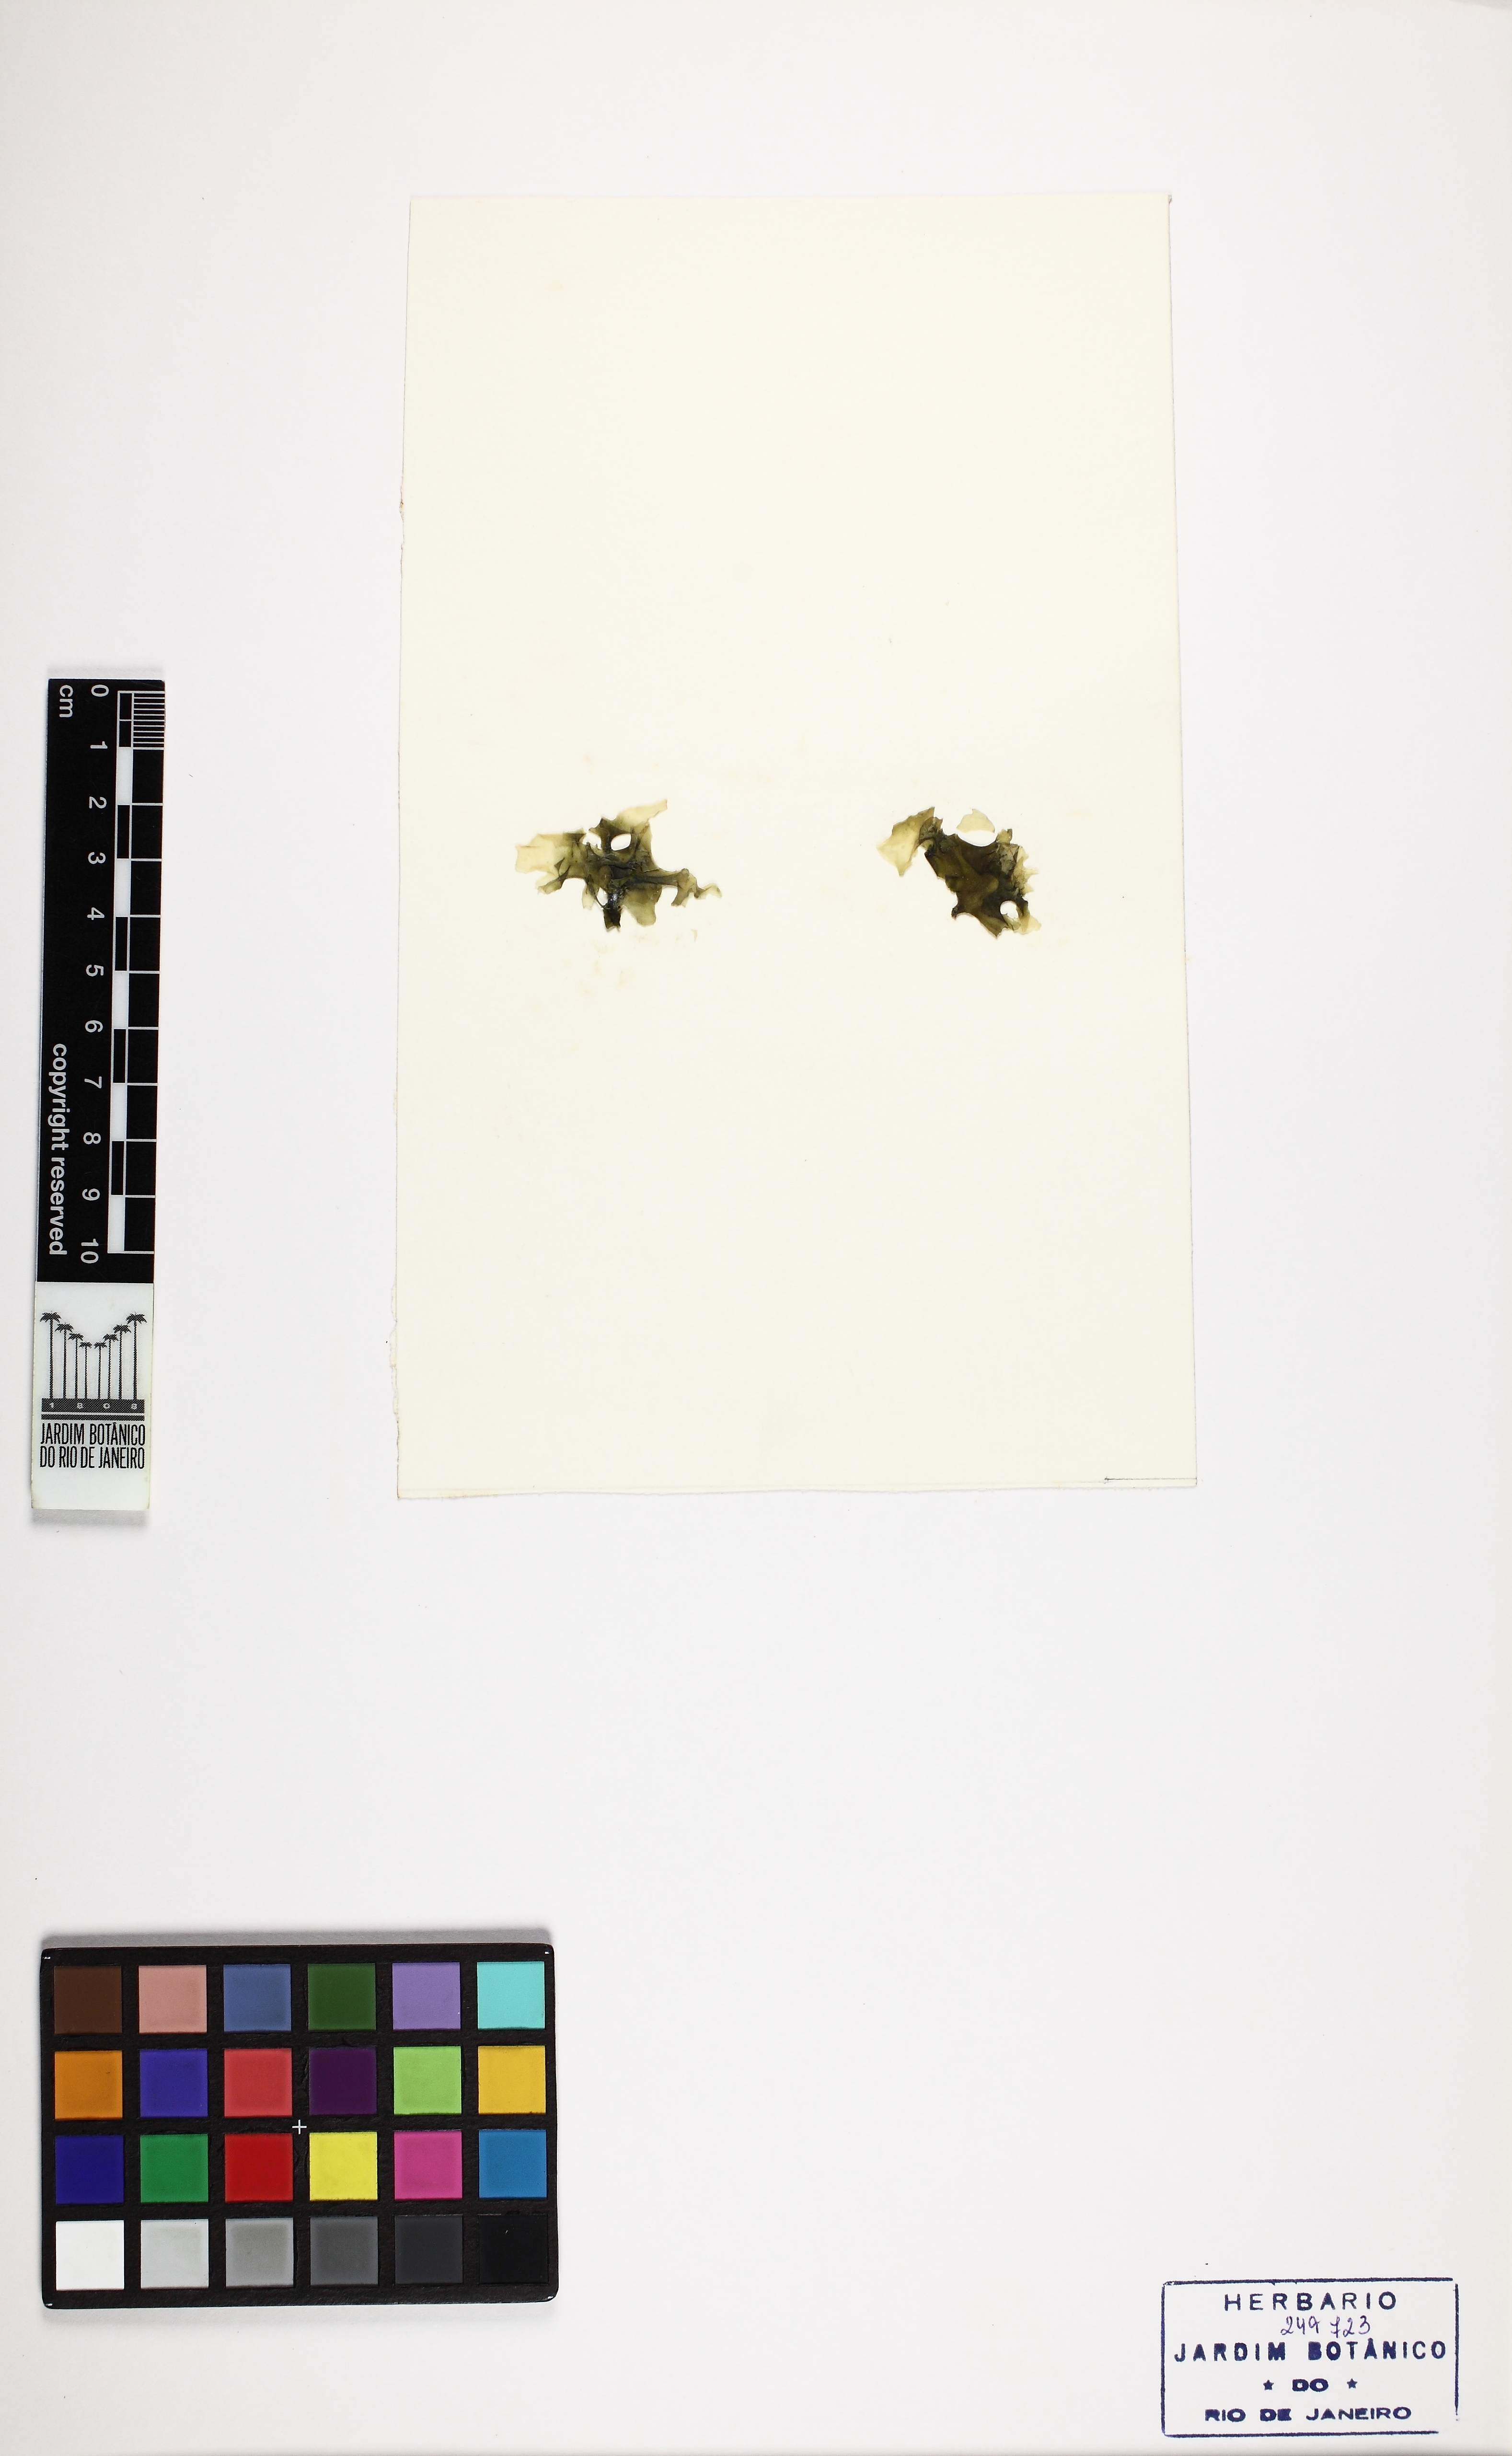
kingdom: Plantae
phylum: Chlorophyta
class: Ulvophyceae
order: Ulvales
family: Ulvaceae
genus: Ulva
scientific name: Ulva rigida
